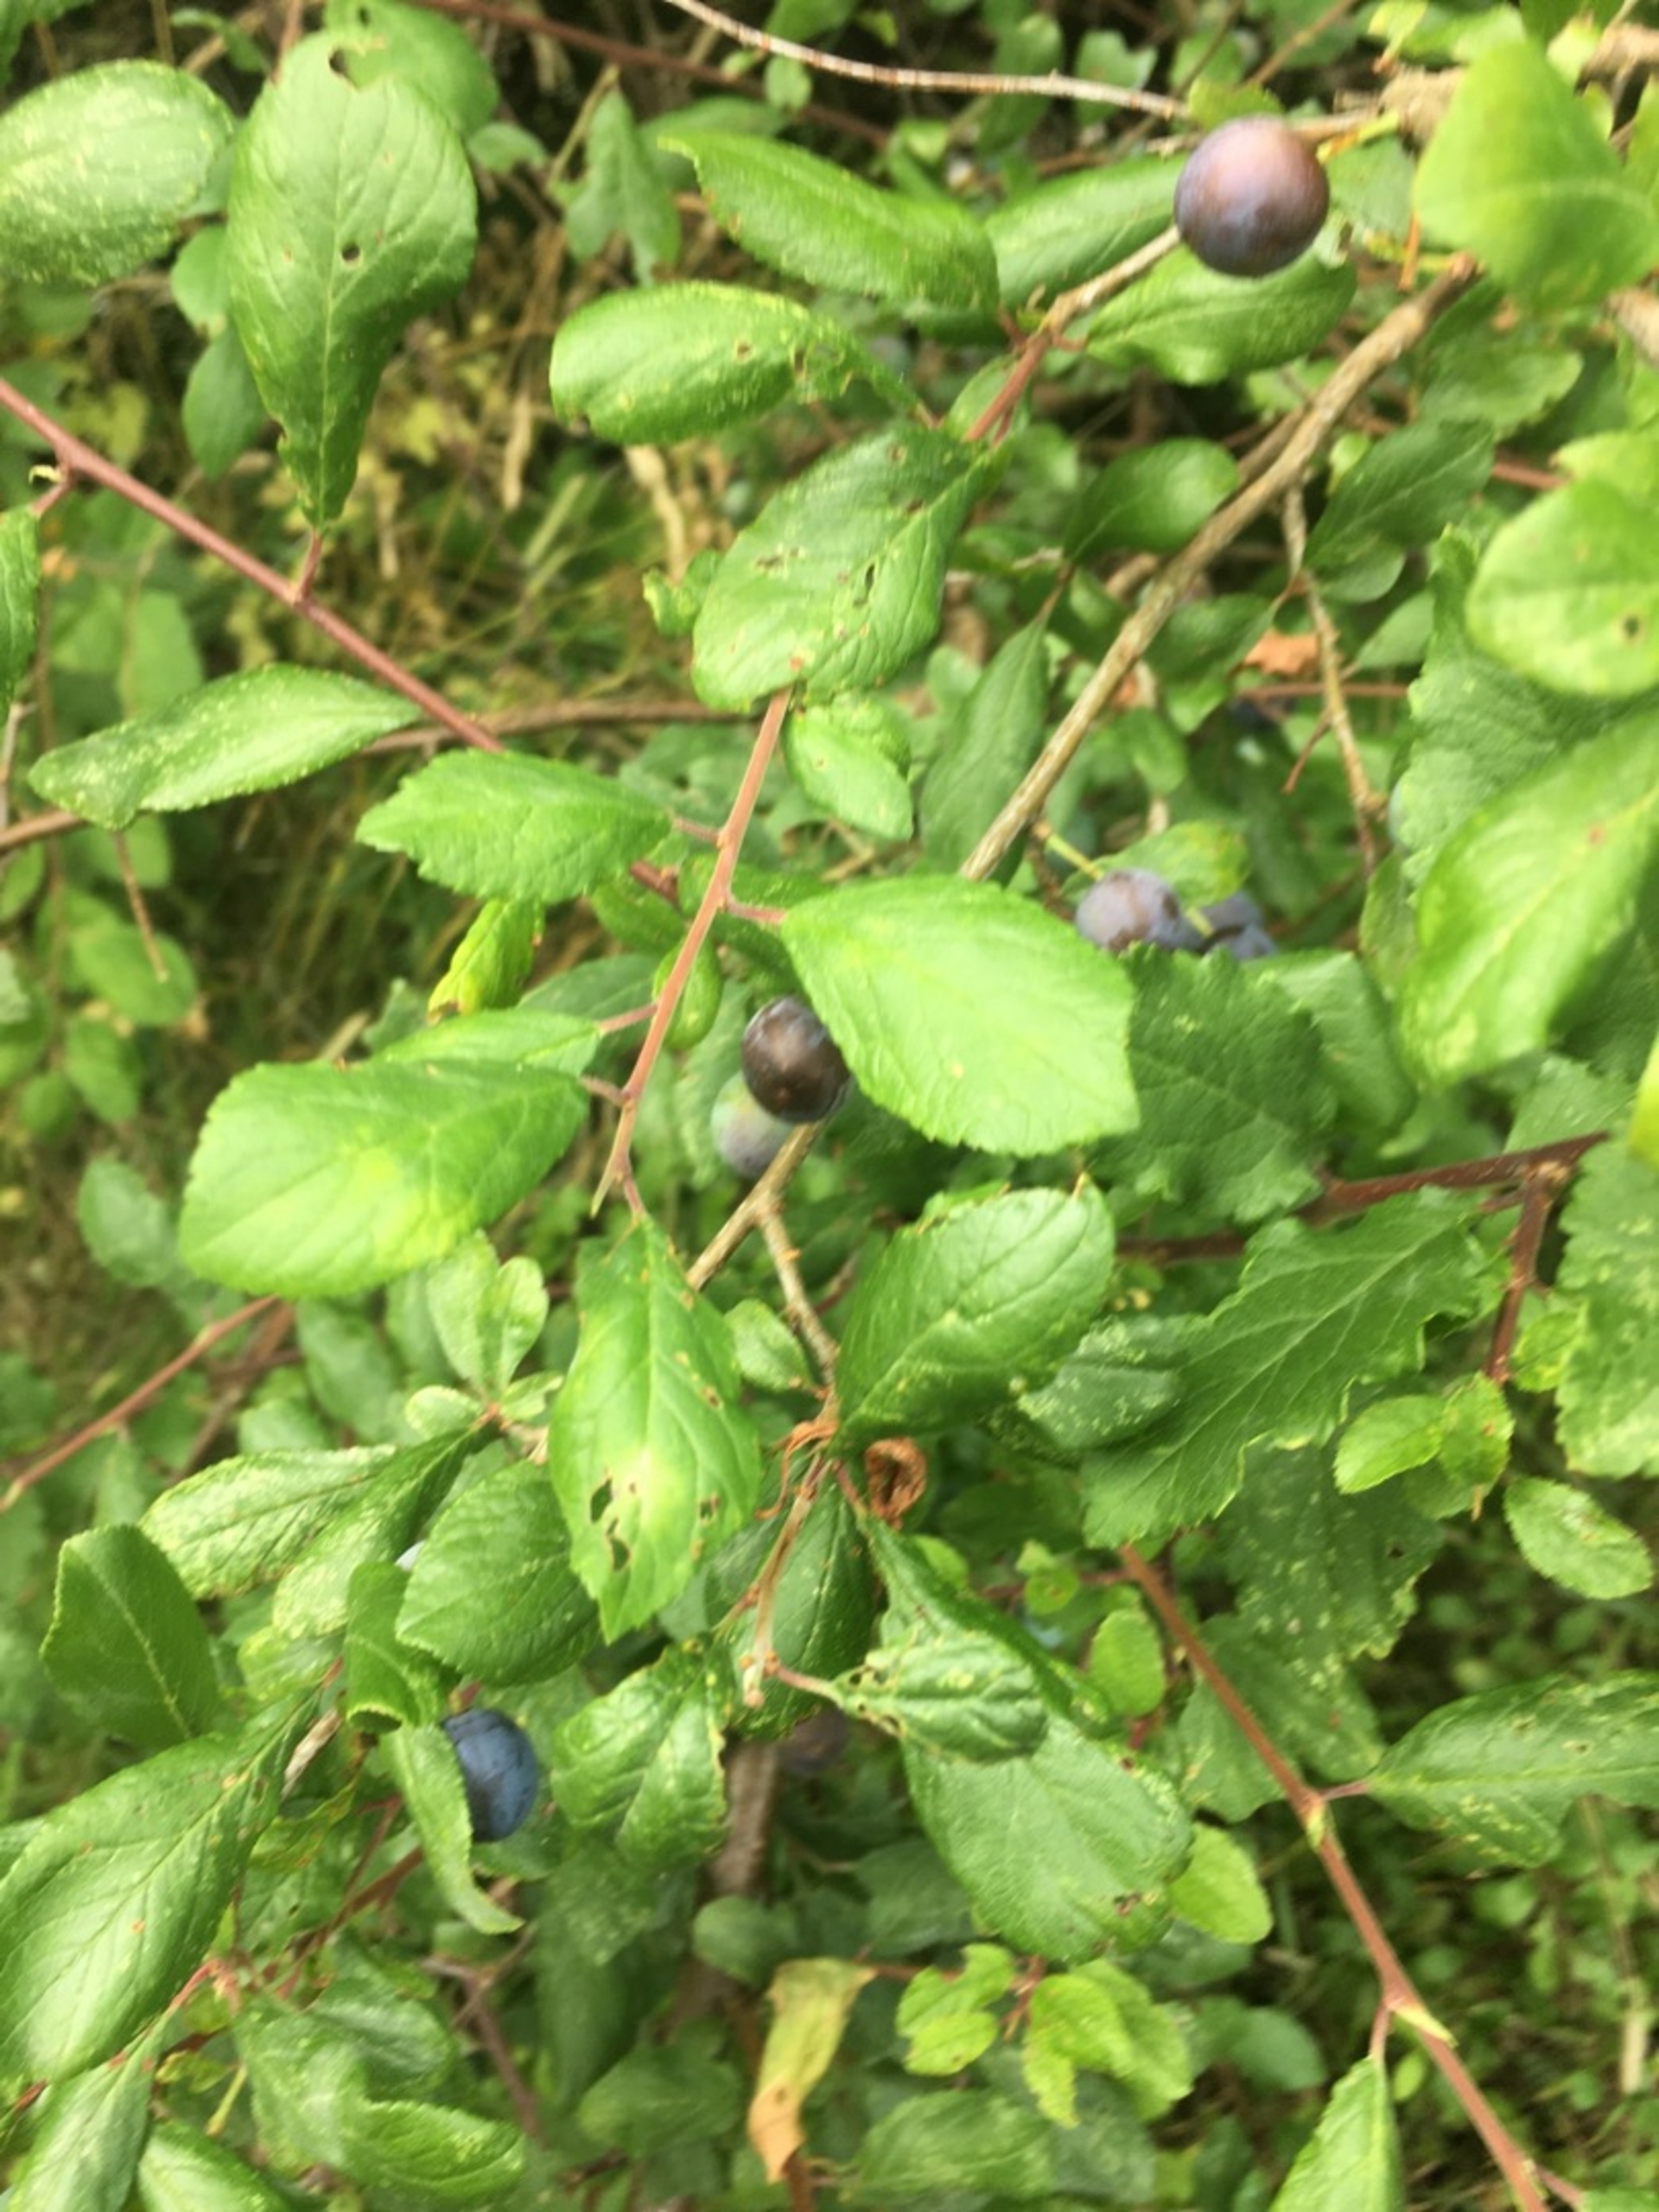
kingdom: Plantae
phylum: Tracheophyta
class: Magnoliopsida
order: Rosales
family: Rosaceae
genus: Prunus
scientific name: Prunus spinosa
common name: Slåen
